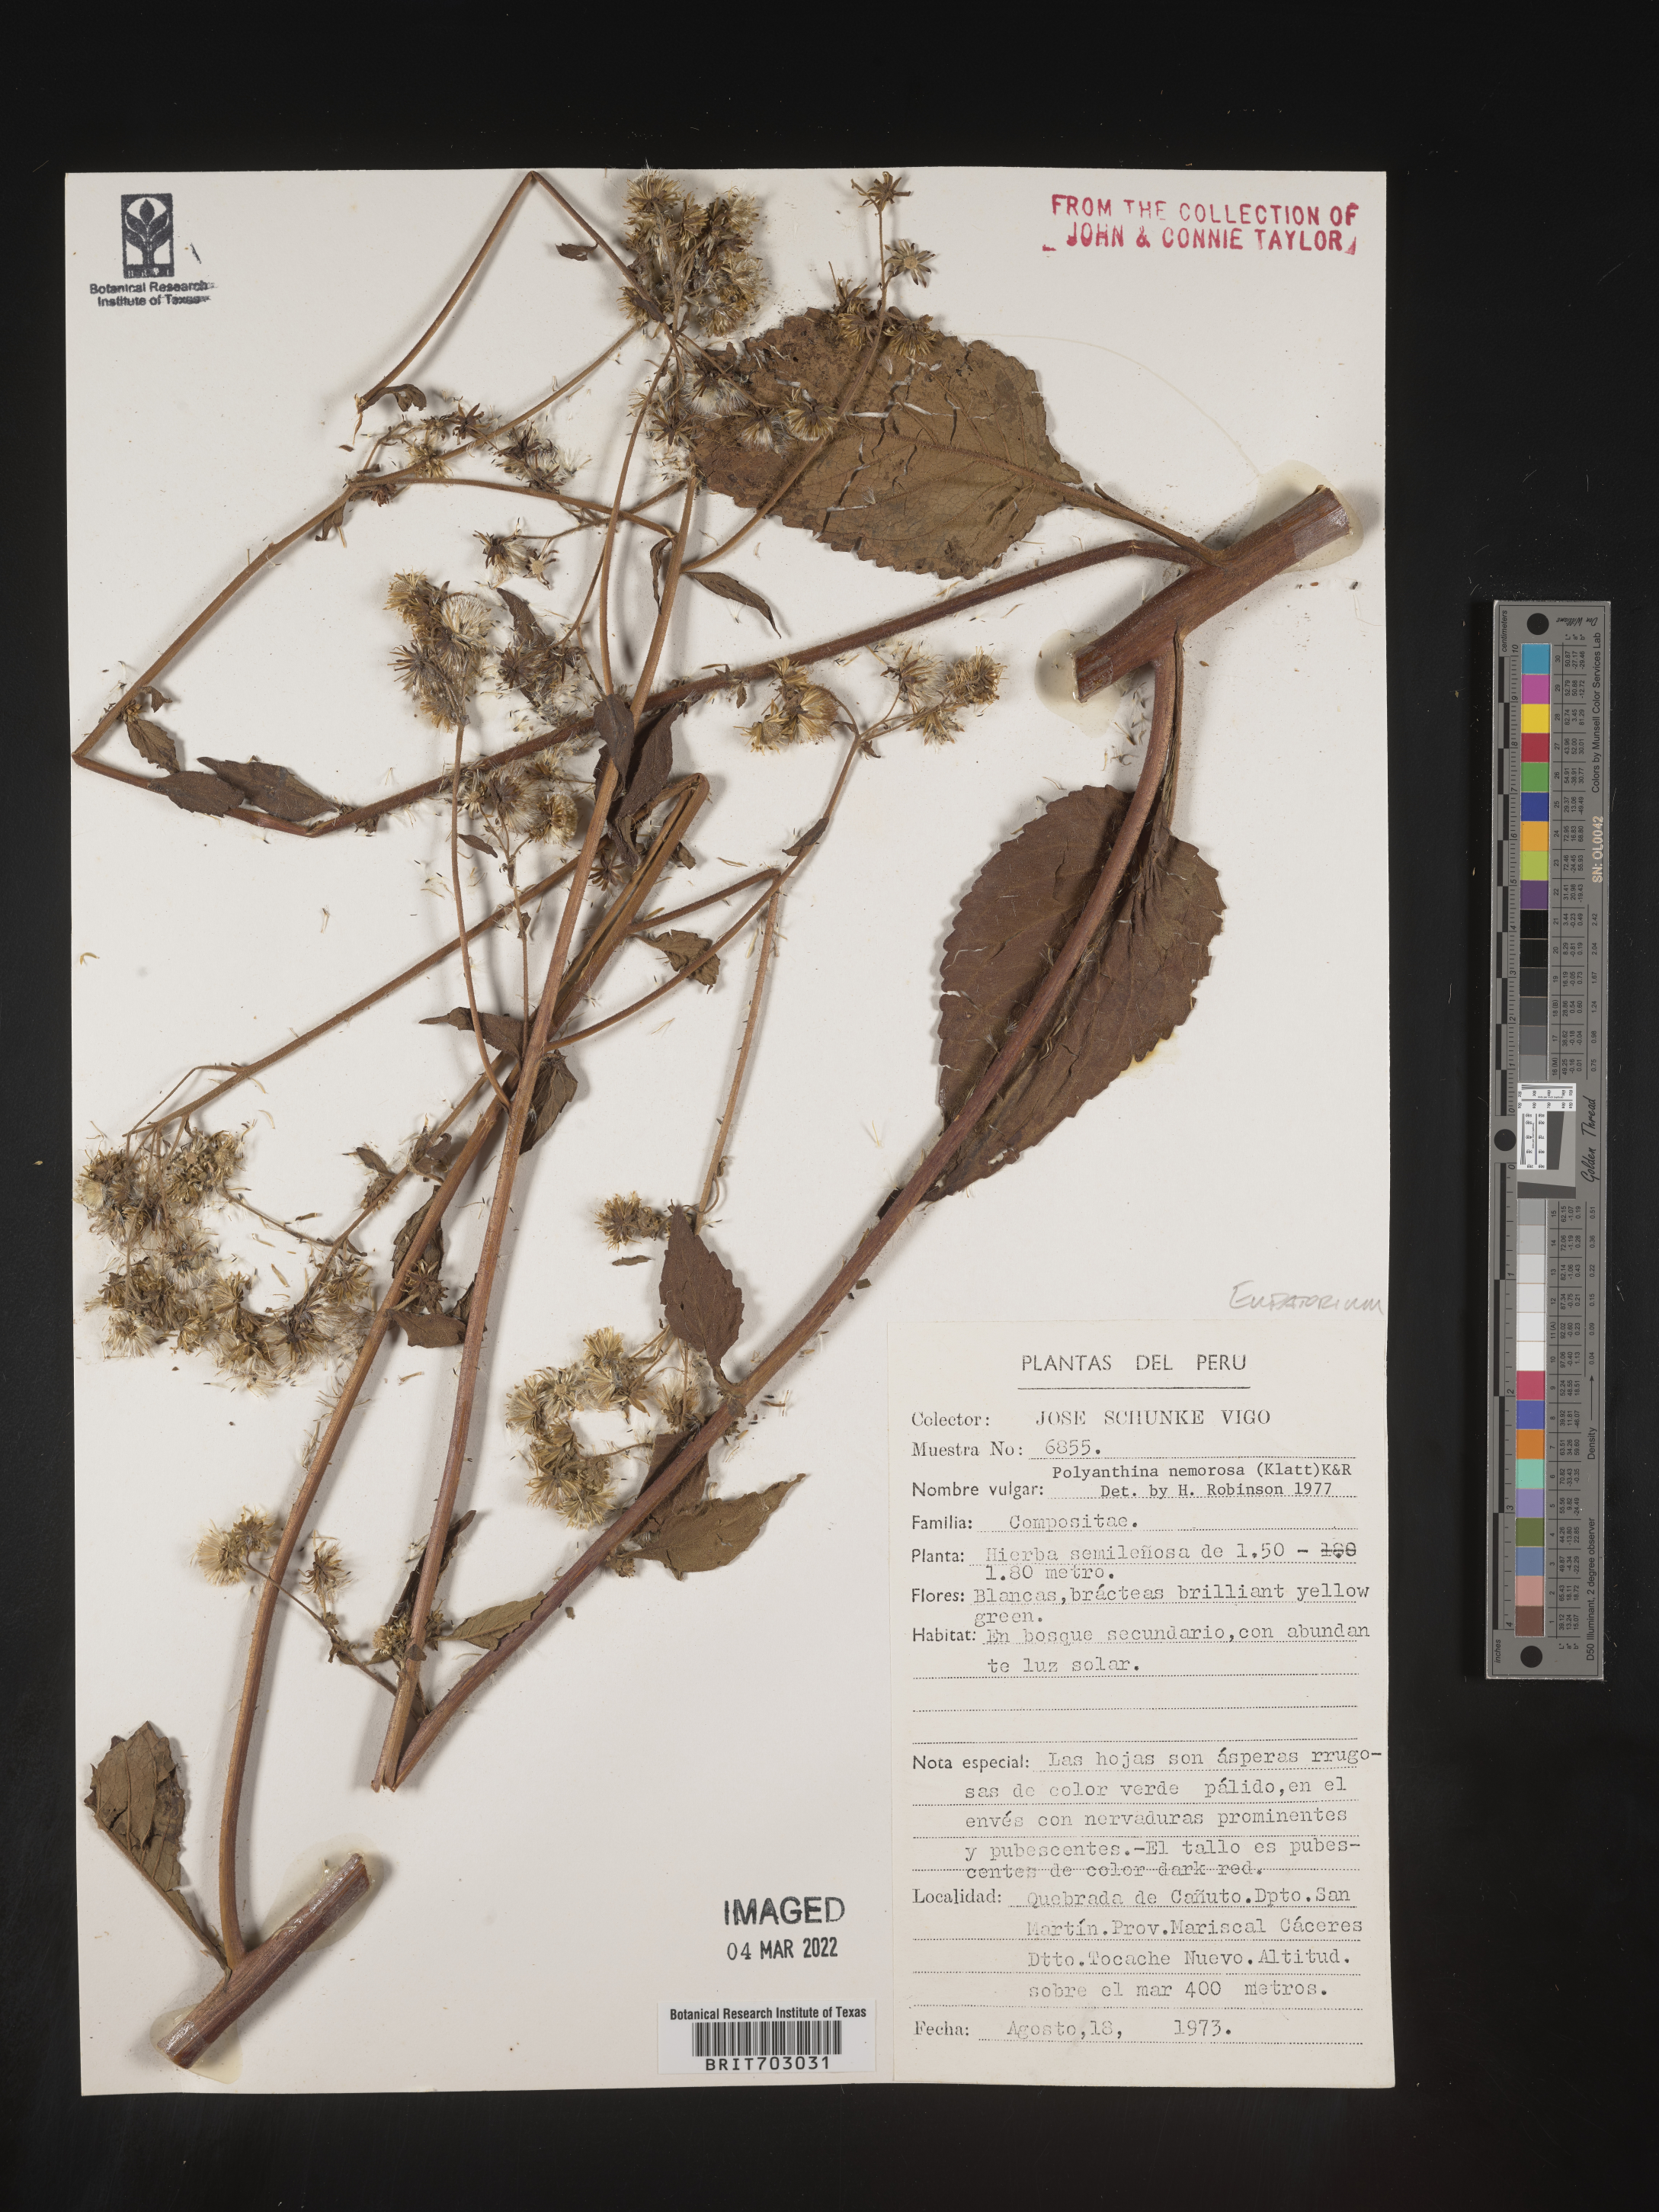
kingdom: Plantae
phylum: Tracheophyta
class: Magnoliopsida
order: Asterales
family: Asteraceae
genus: Eupatorium
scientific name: Eupatorium
